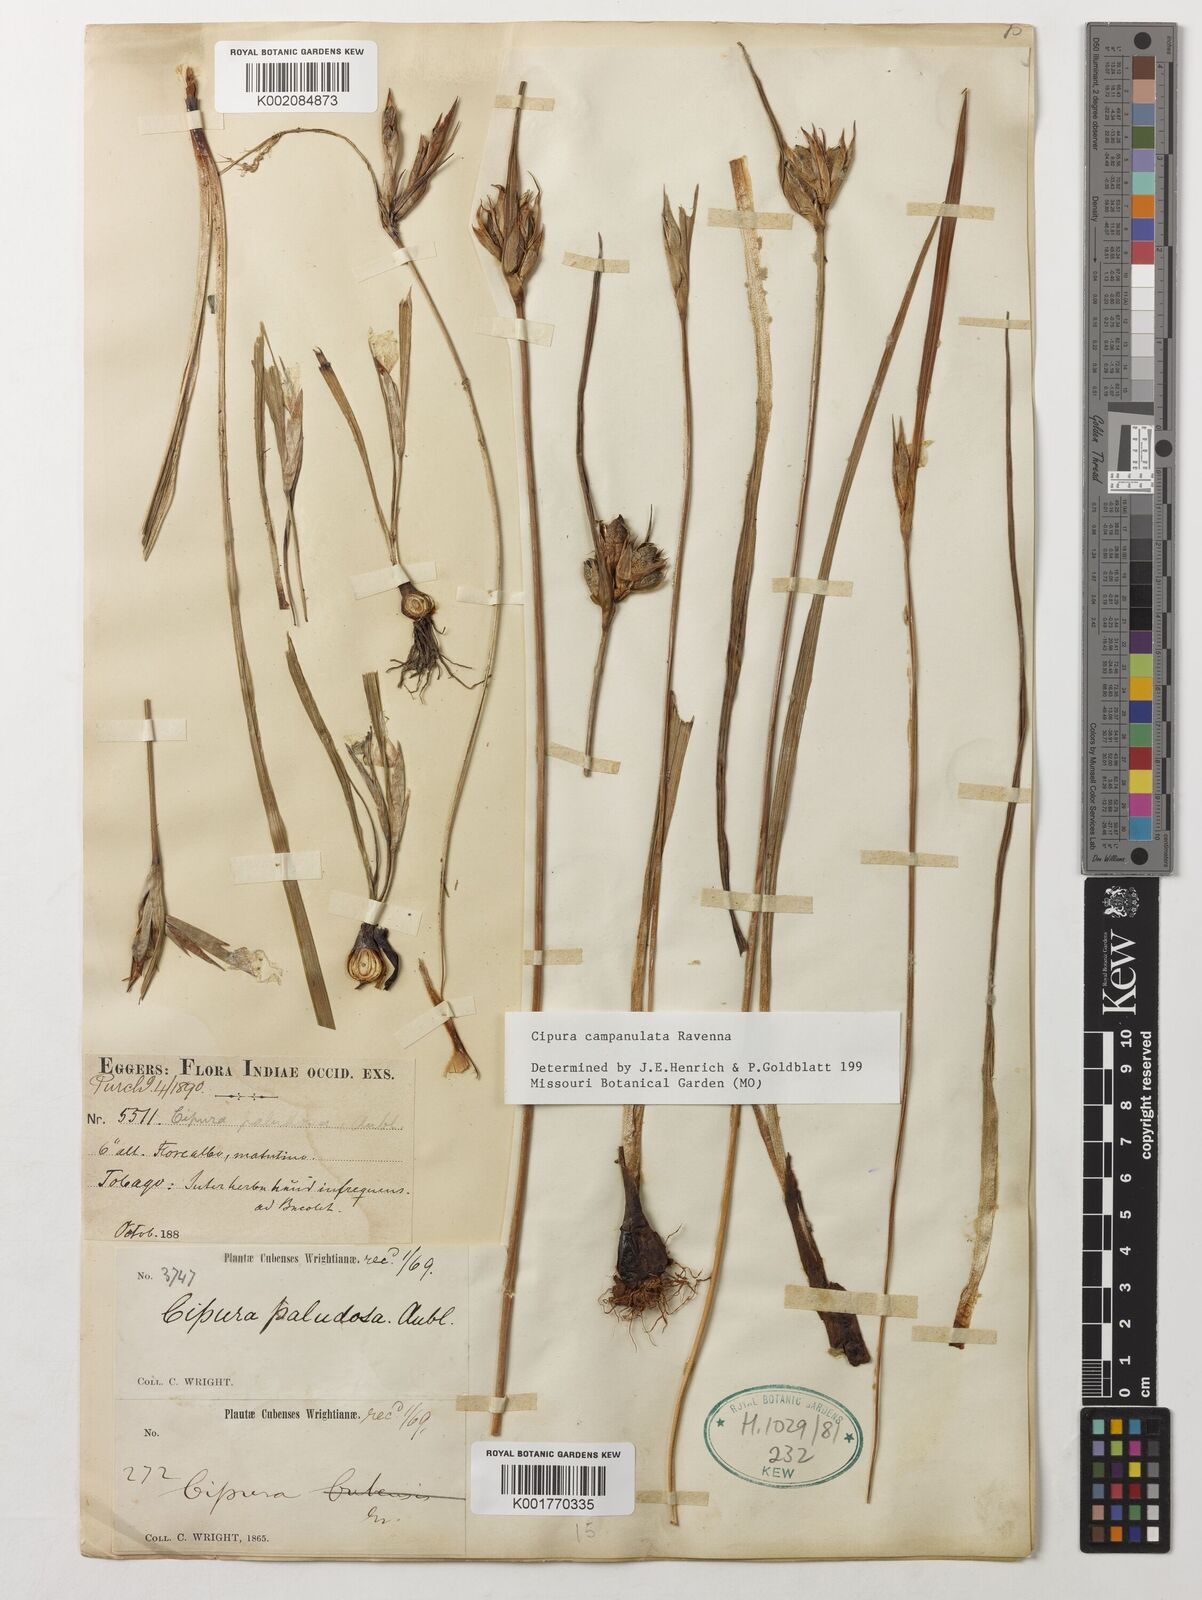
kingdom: Plantae
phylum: Tracheophyta
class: Liliopsida
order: Asparagales
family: Iridaceae
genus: Cipura
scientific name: Cipura campanulata
